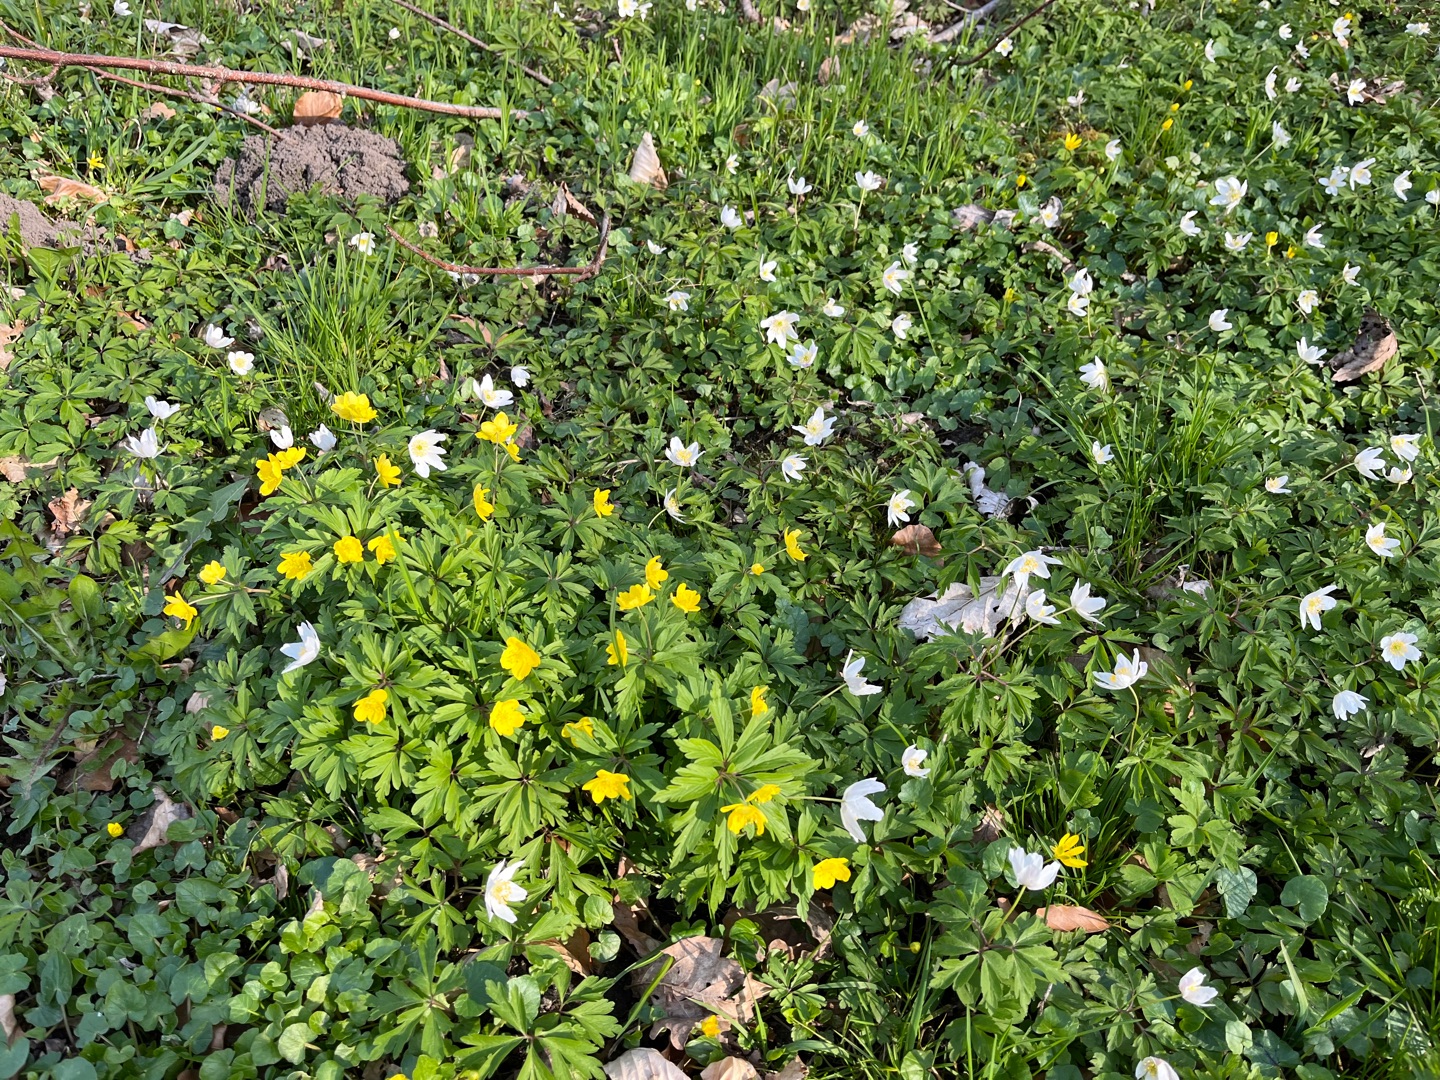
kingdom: Plantae
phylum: Tracheophyta
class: Magnoliopsida
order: Ranunculales
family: Ranunculaceae
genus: Anemone
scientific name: Anemone ranunculoides
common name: Gul anemone
